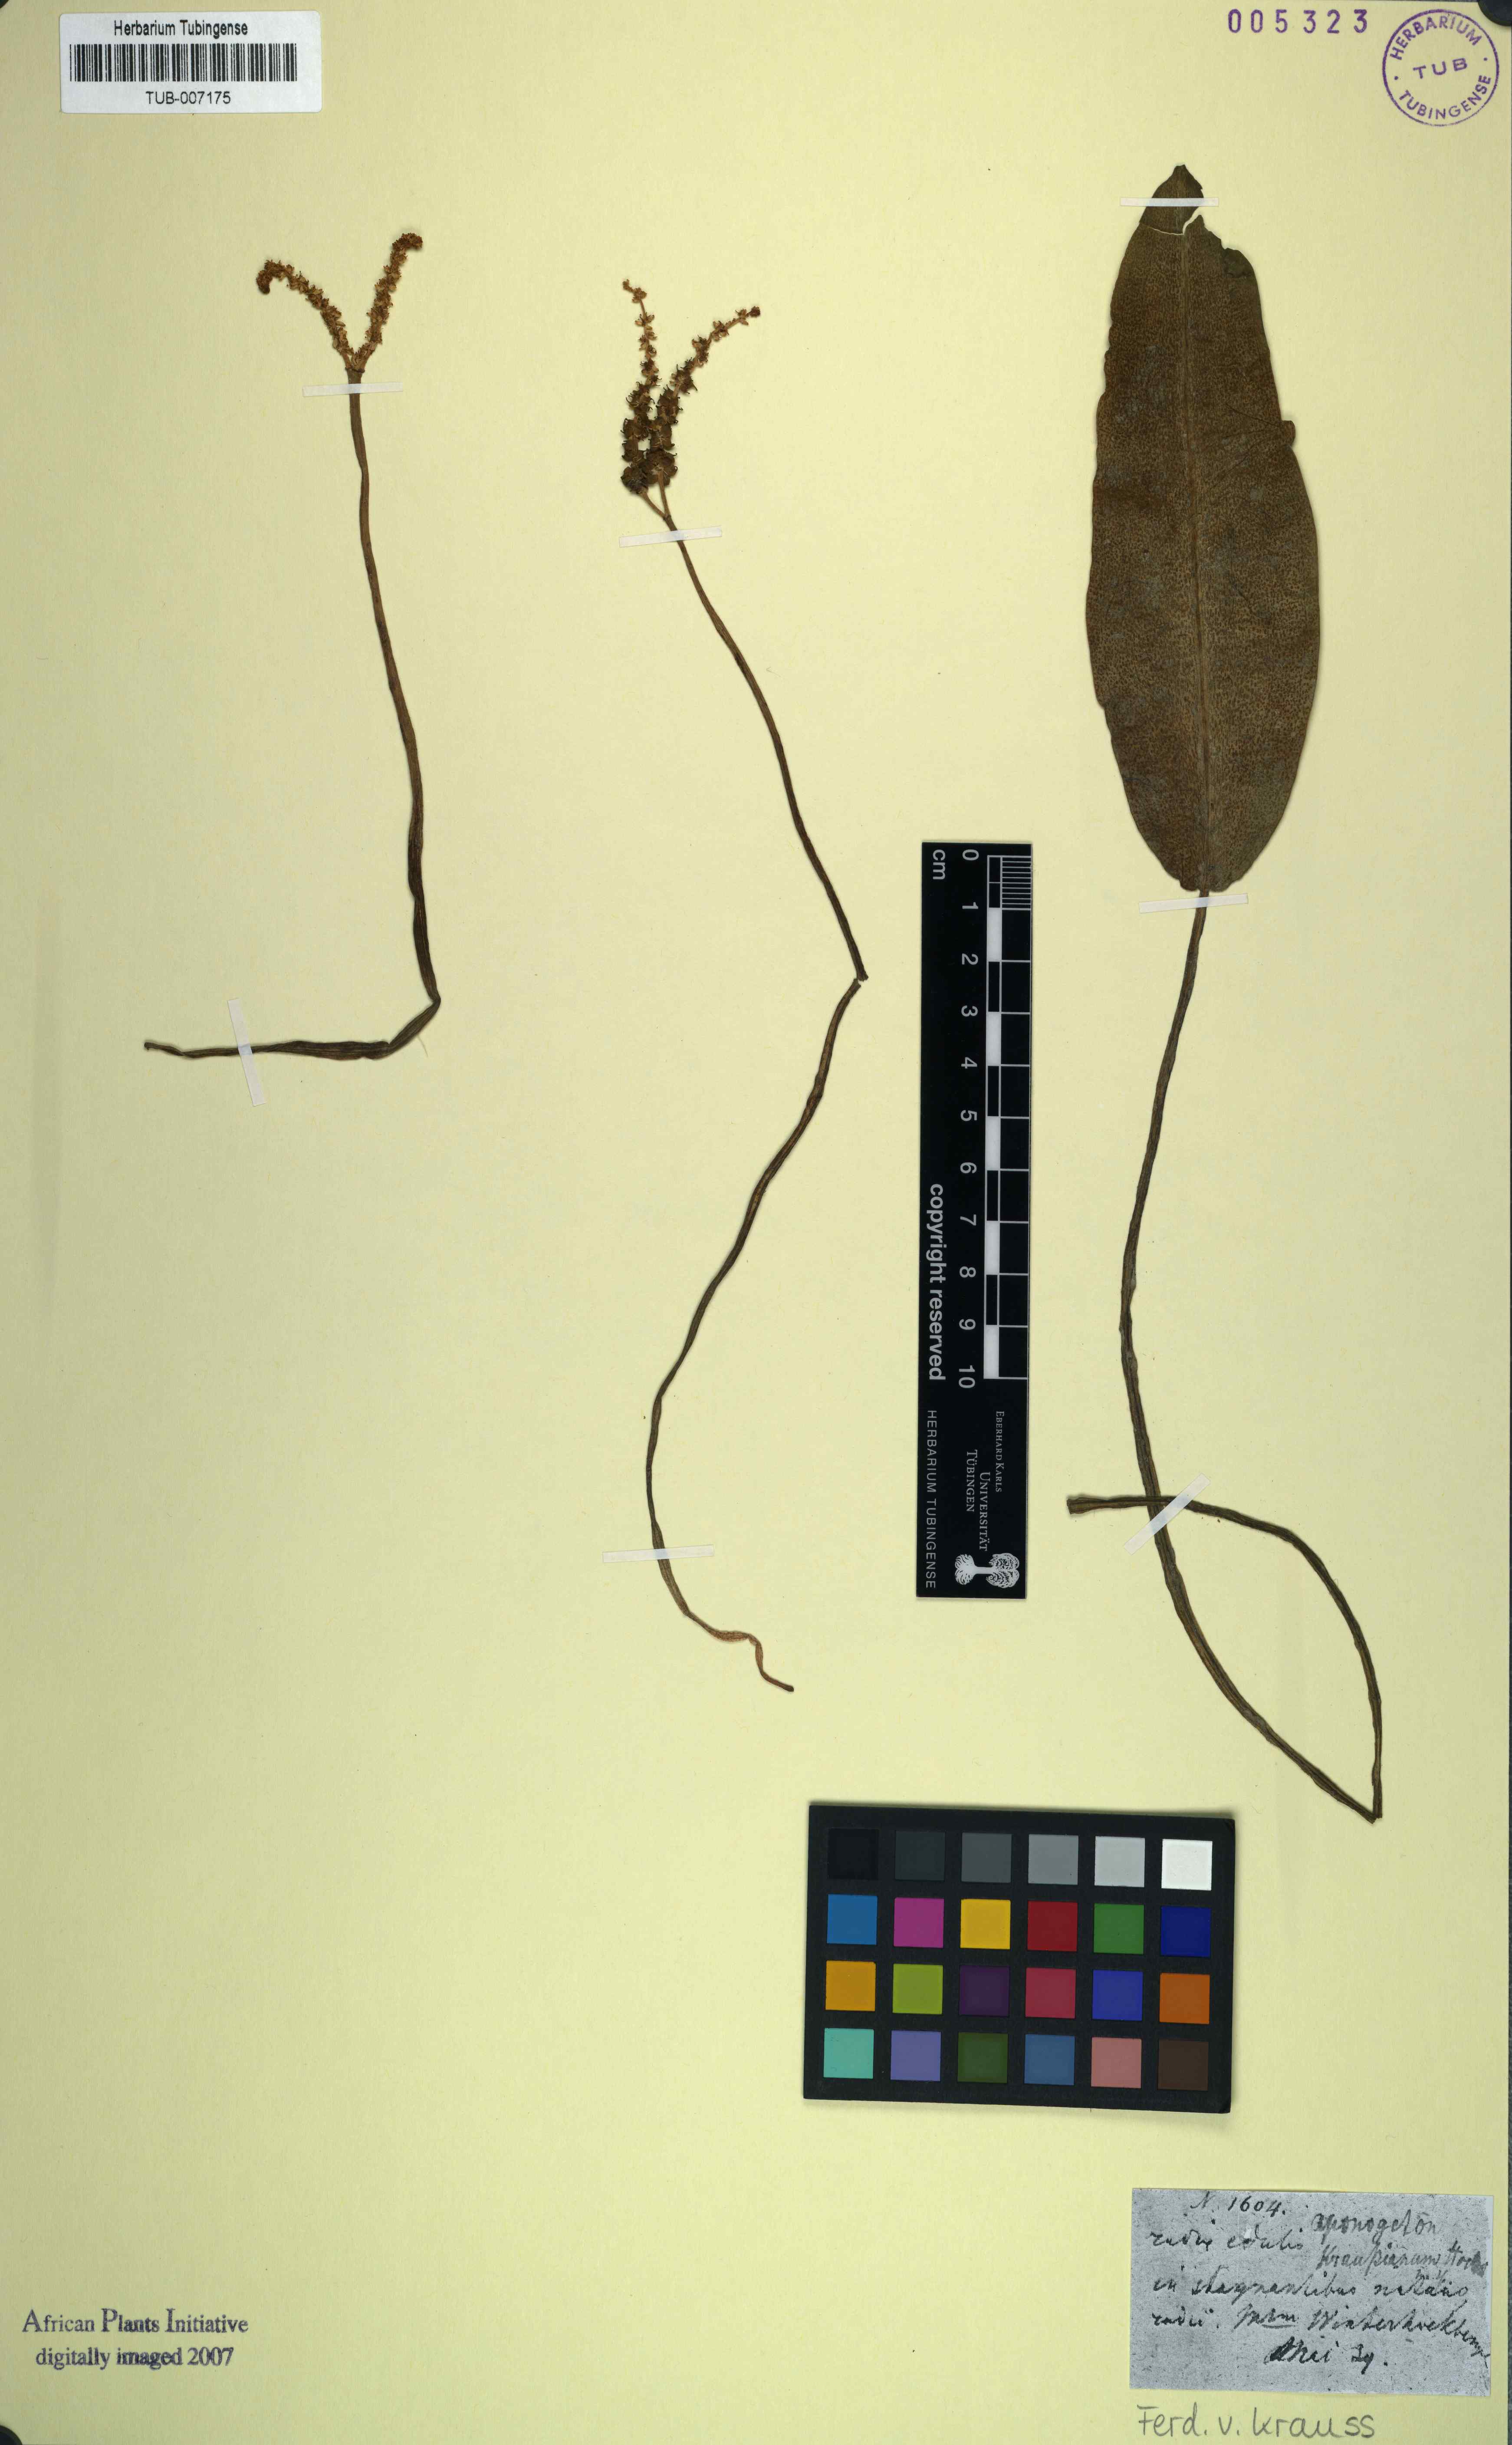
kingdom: Plantae
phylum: Tracheophyta
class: Liliopsida
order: Alismatales
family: Aponogetonaceae
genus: Aponogeton
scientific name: Aponogeton desertorum
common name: Dog-with-two-tails
